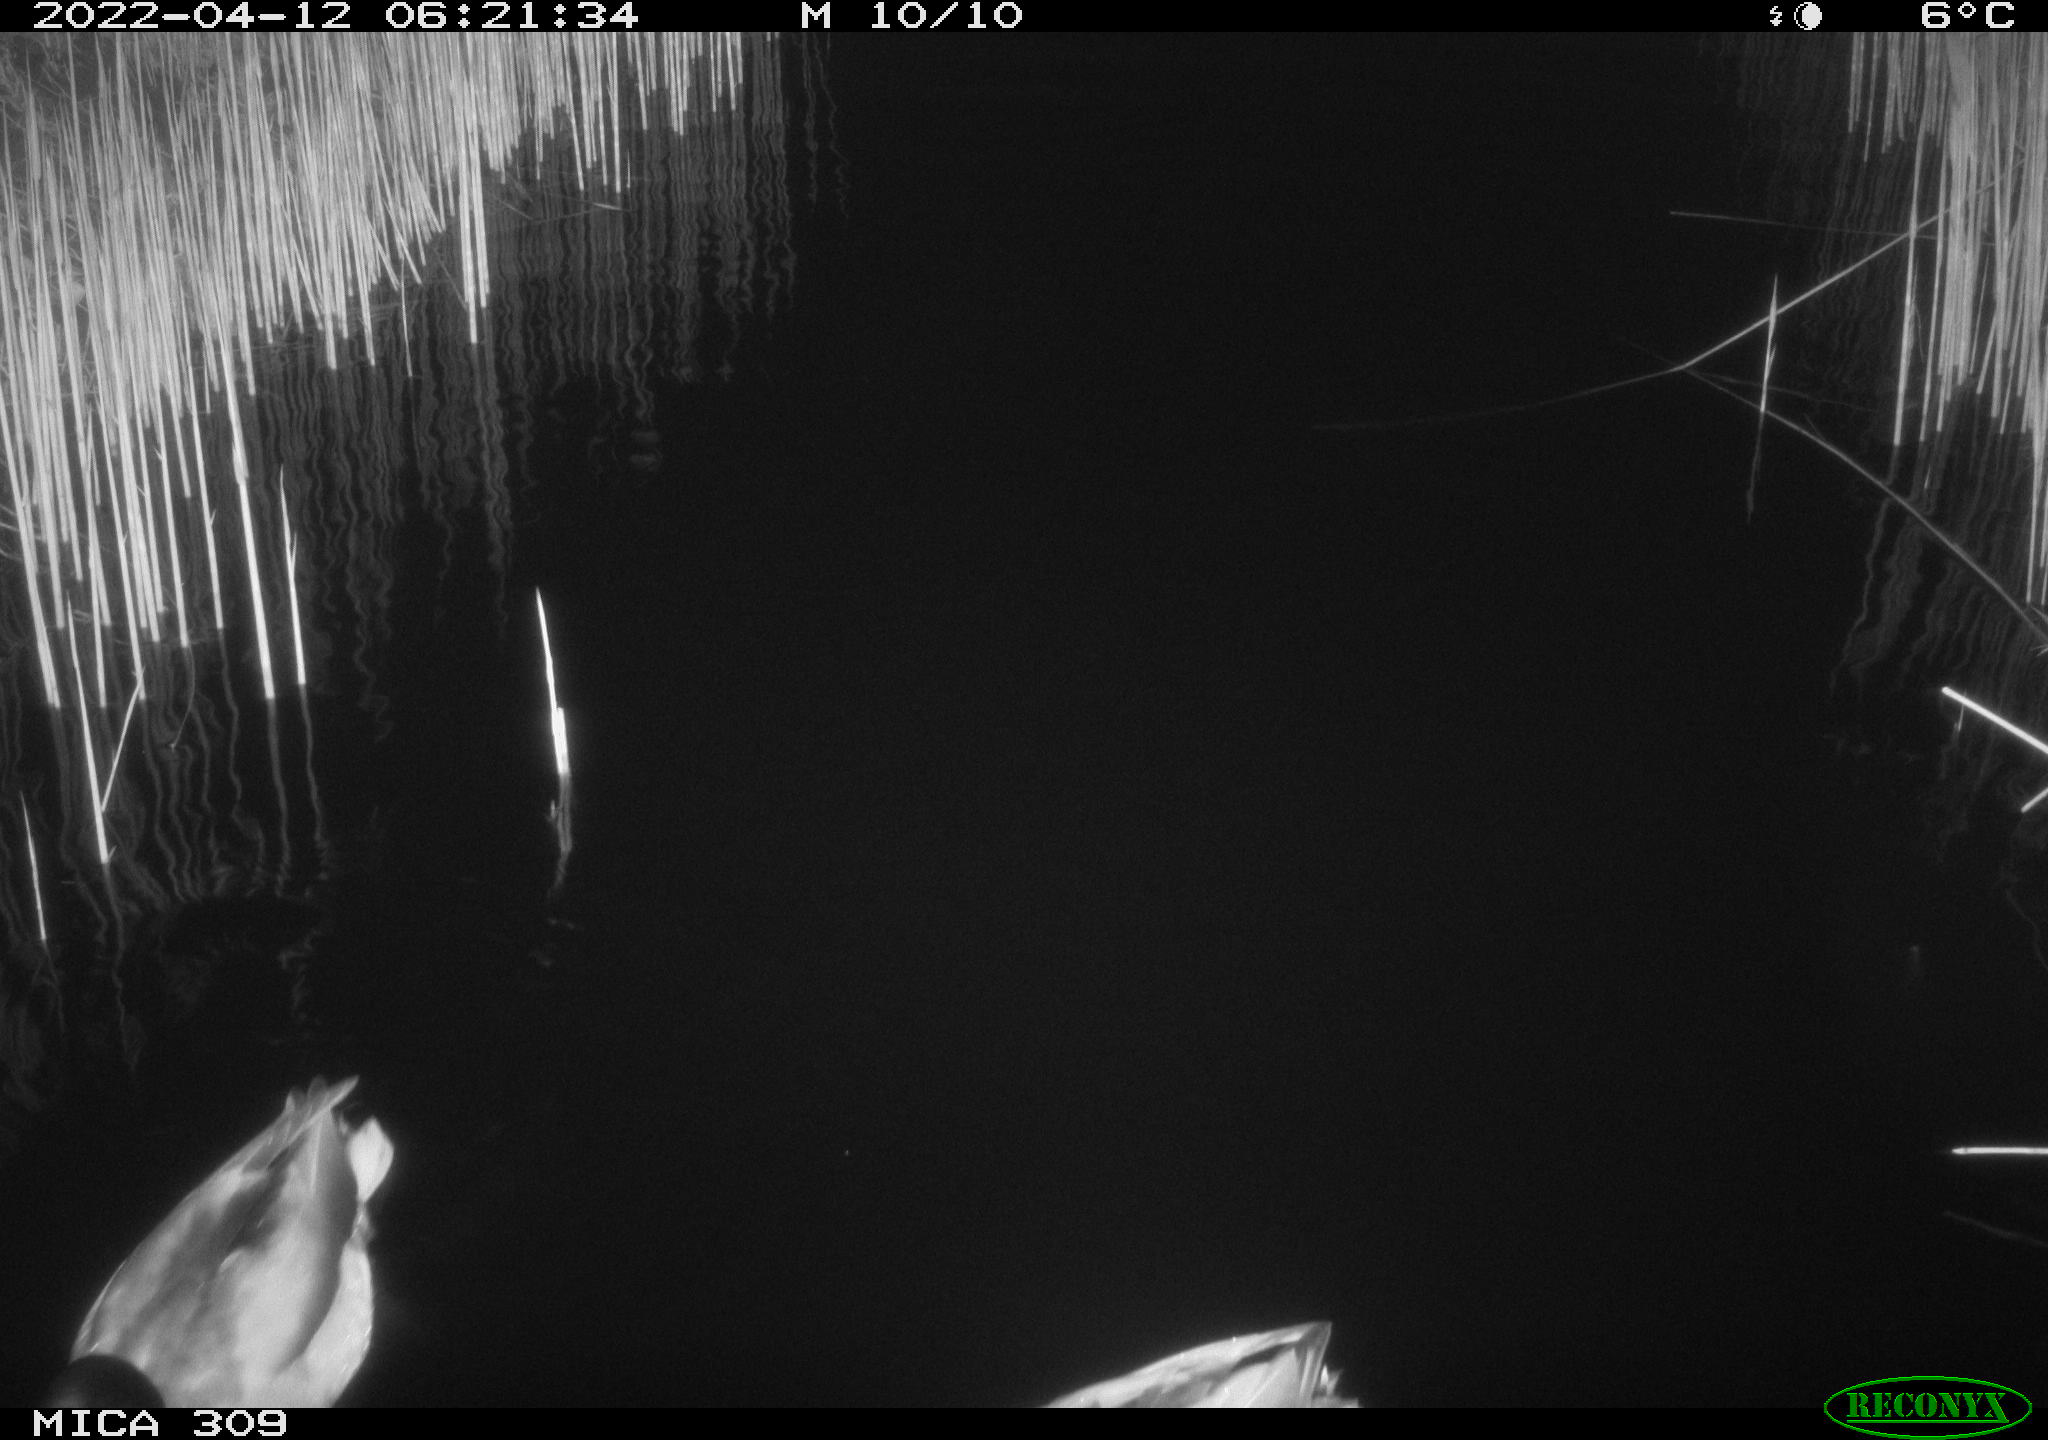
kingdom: Animalia
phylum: Chordata
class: Aves
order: Anseriformes
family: Anatidae
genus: Anas
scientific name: Anas platyrhynchos
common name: Mallard
